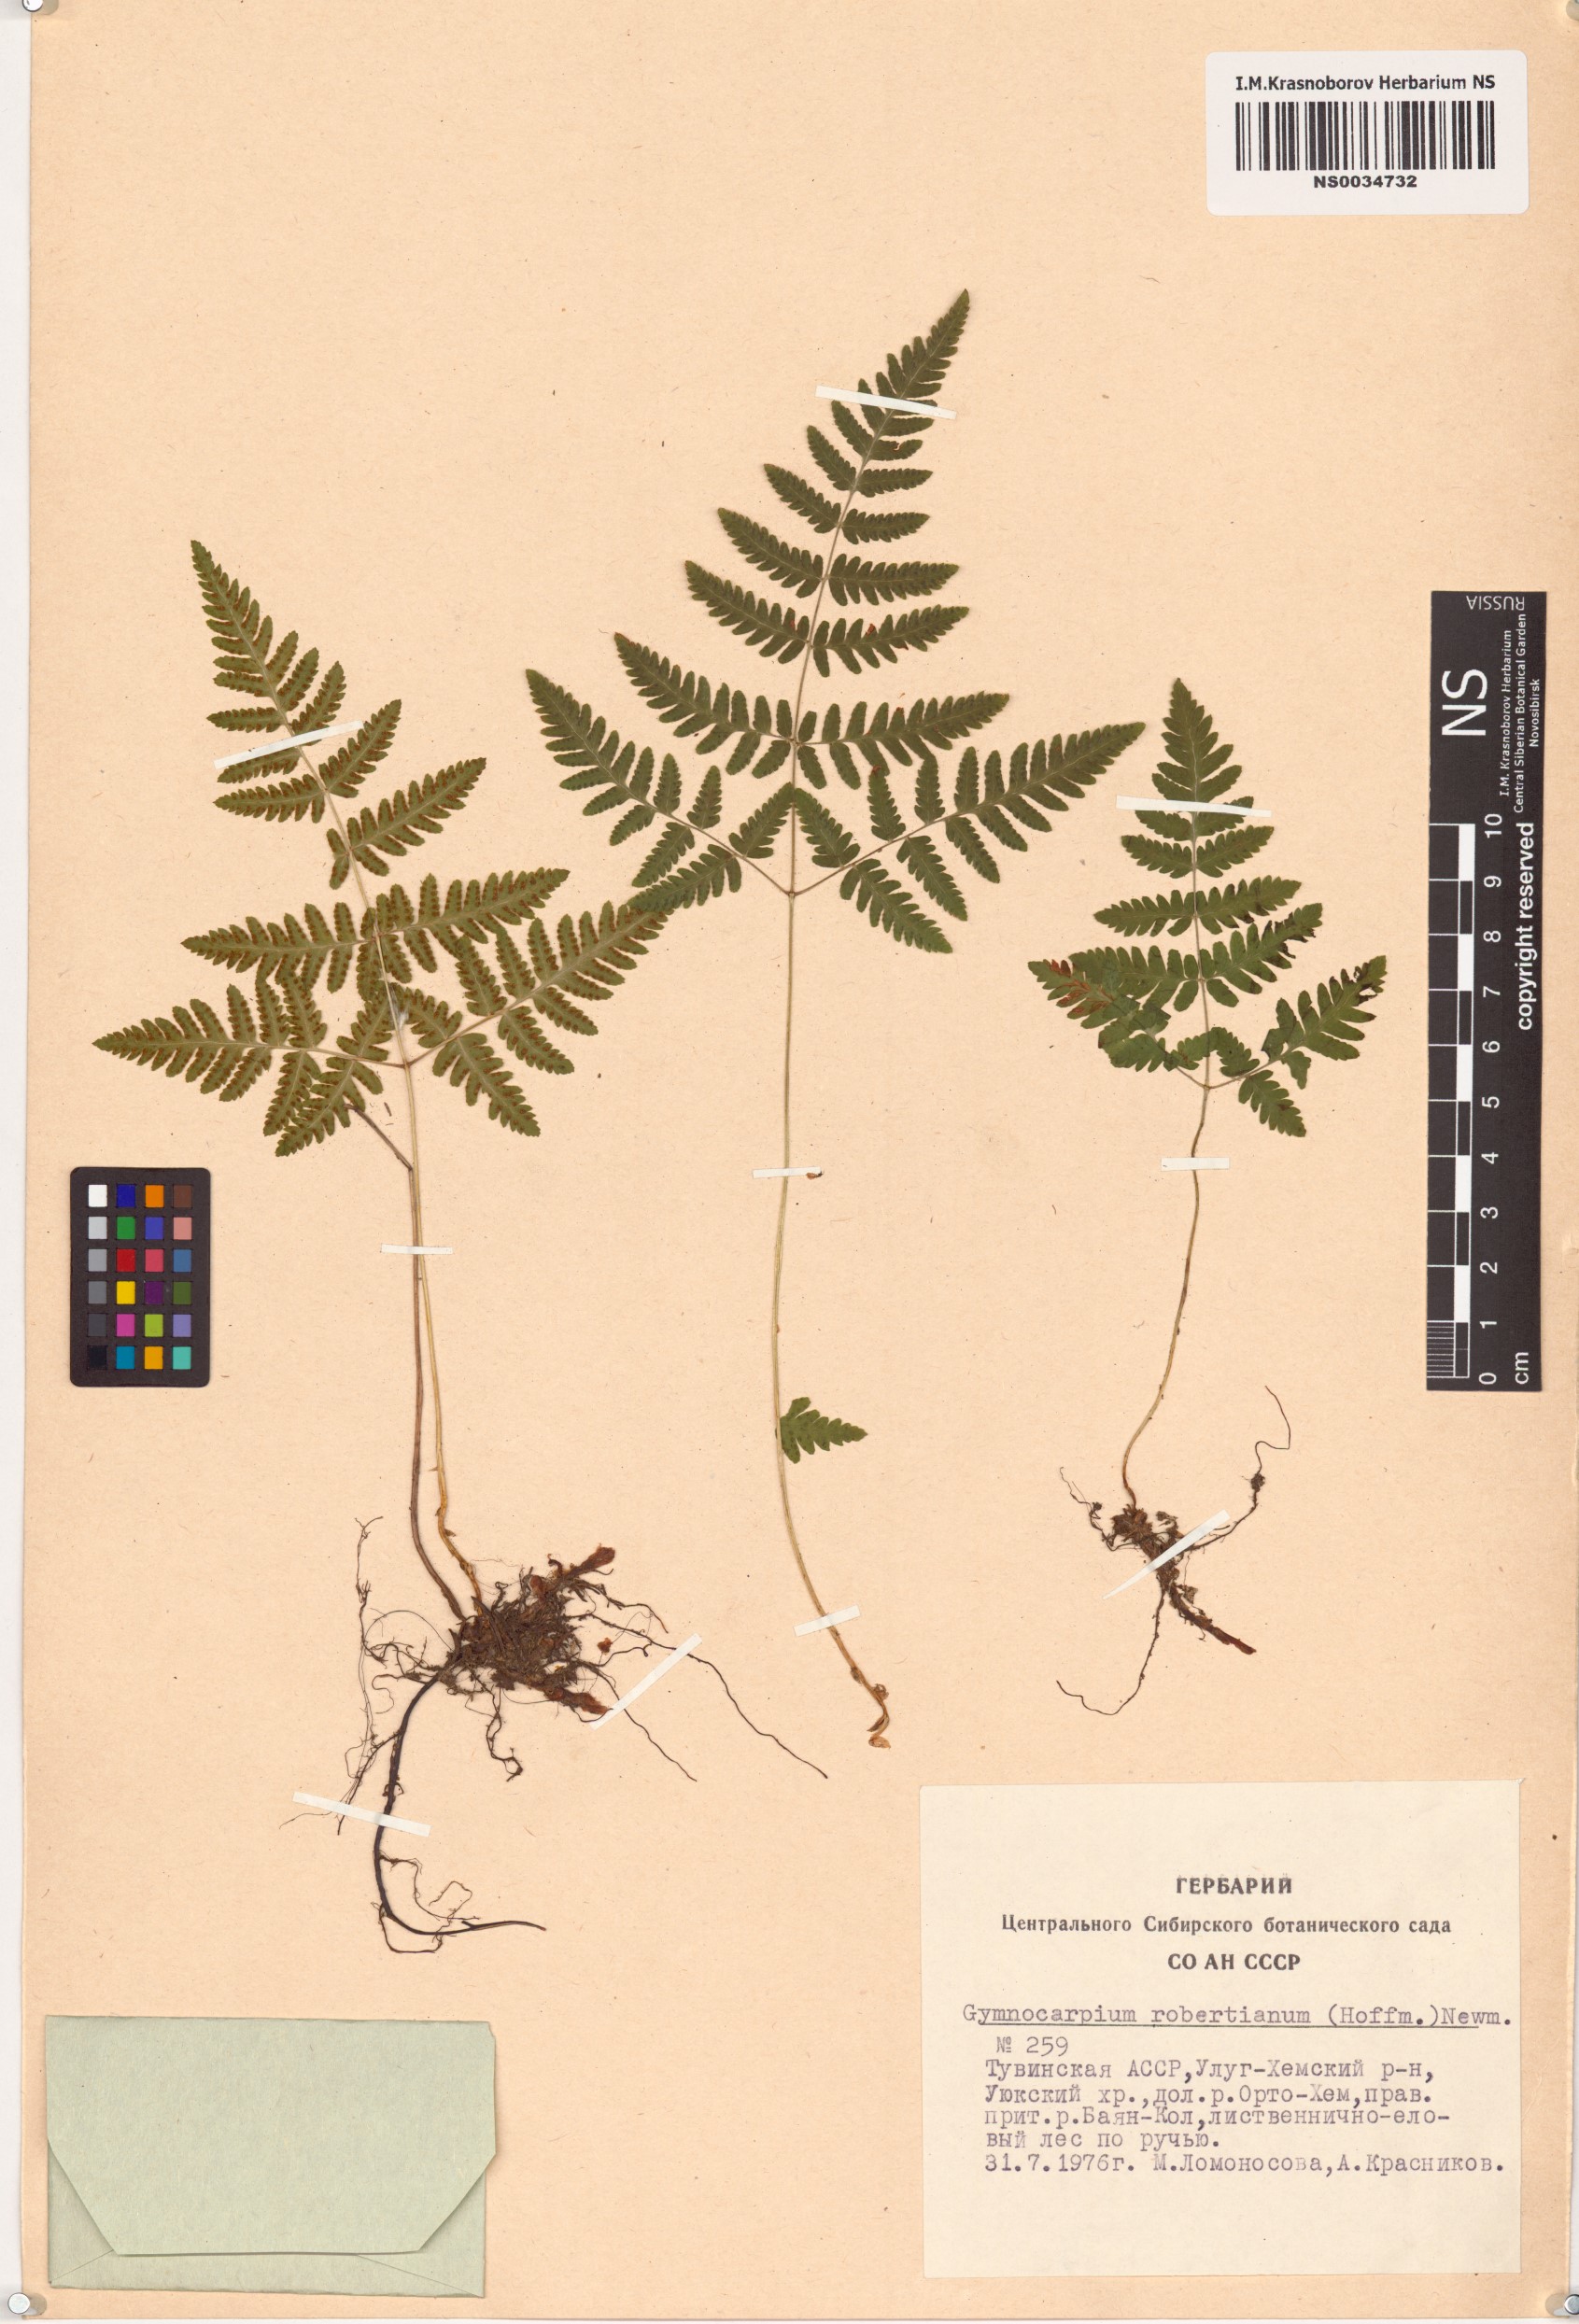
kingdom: Plantae
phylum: Tracheophyta
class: Polypodiopsida
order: Polypodiales
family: Cystopteridaceae
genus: Gymnocarpium
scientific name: Gymnocarpium robertianum
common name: Limestone fern
